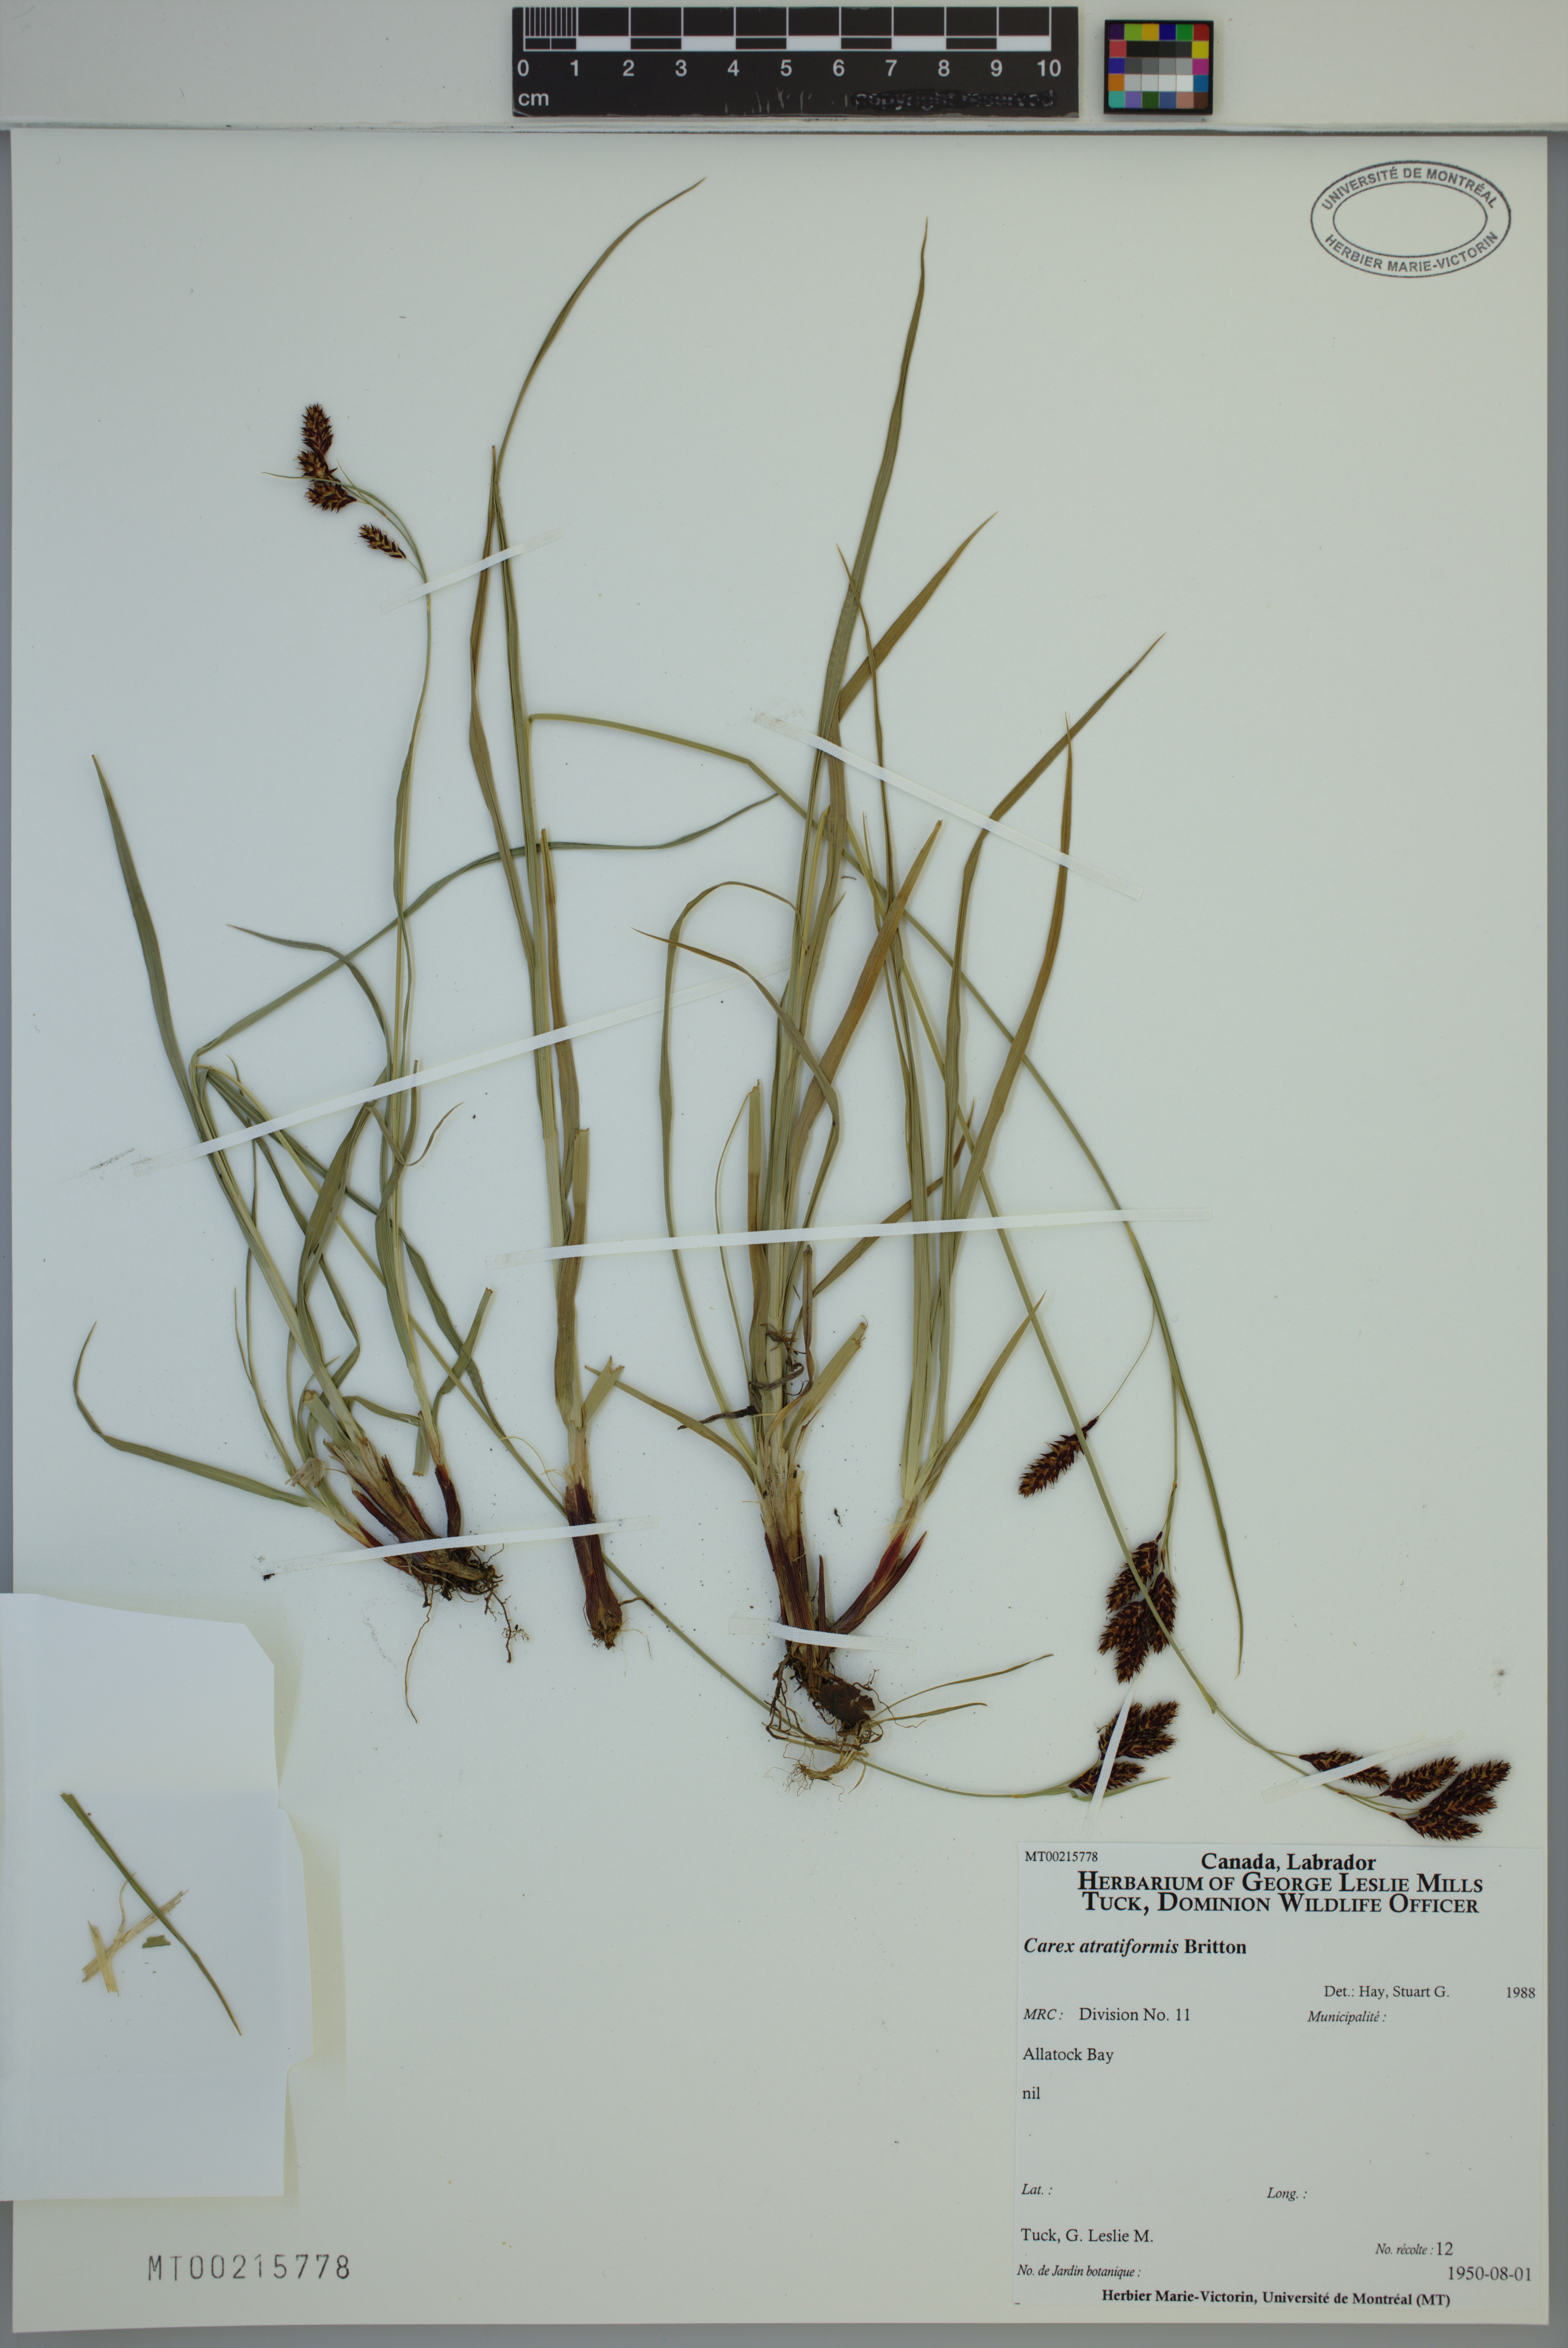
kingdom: Plantae
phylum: Tracheophyta
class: Liliopsida
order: Poales
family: Cyperaceae
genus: Carex
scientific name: Carex atratiformis
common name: Black sedge
